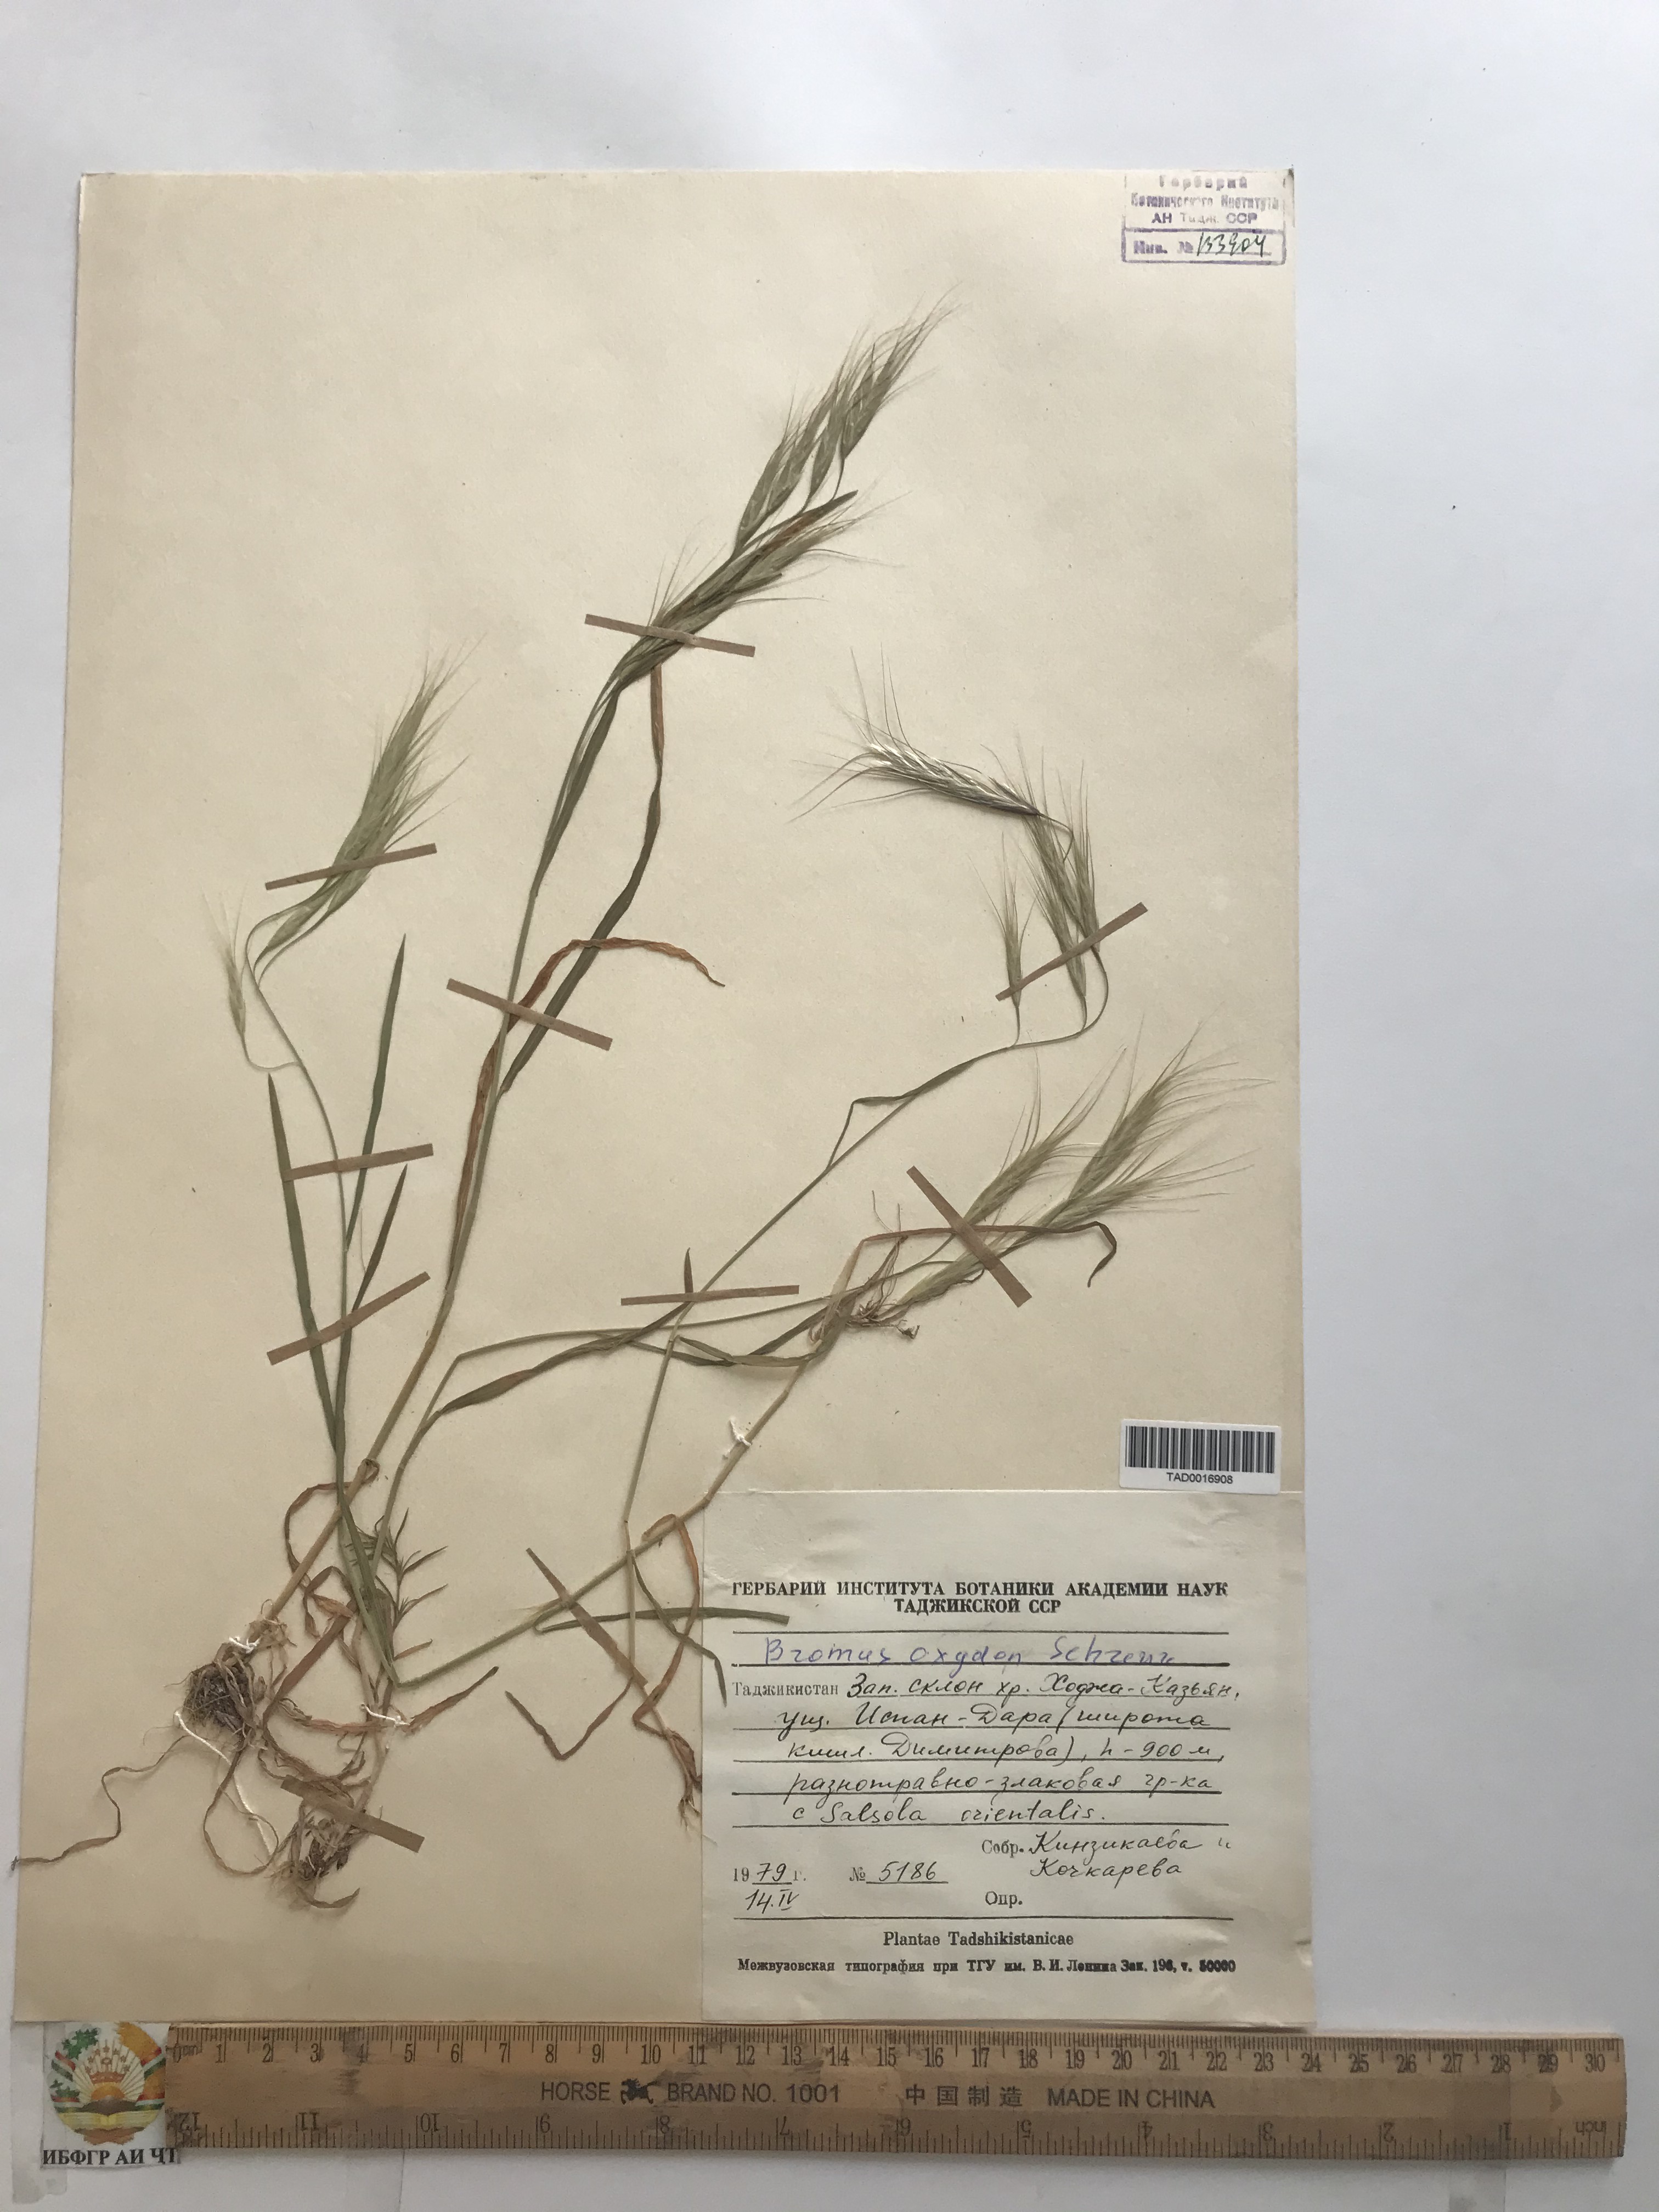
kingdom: Plantae
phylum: Tracheophyta
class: Liliopsida
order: Poales
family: Poaceae
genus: Bromus
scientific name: Bromus oxyodon
